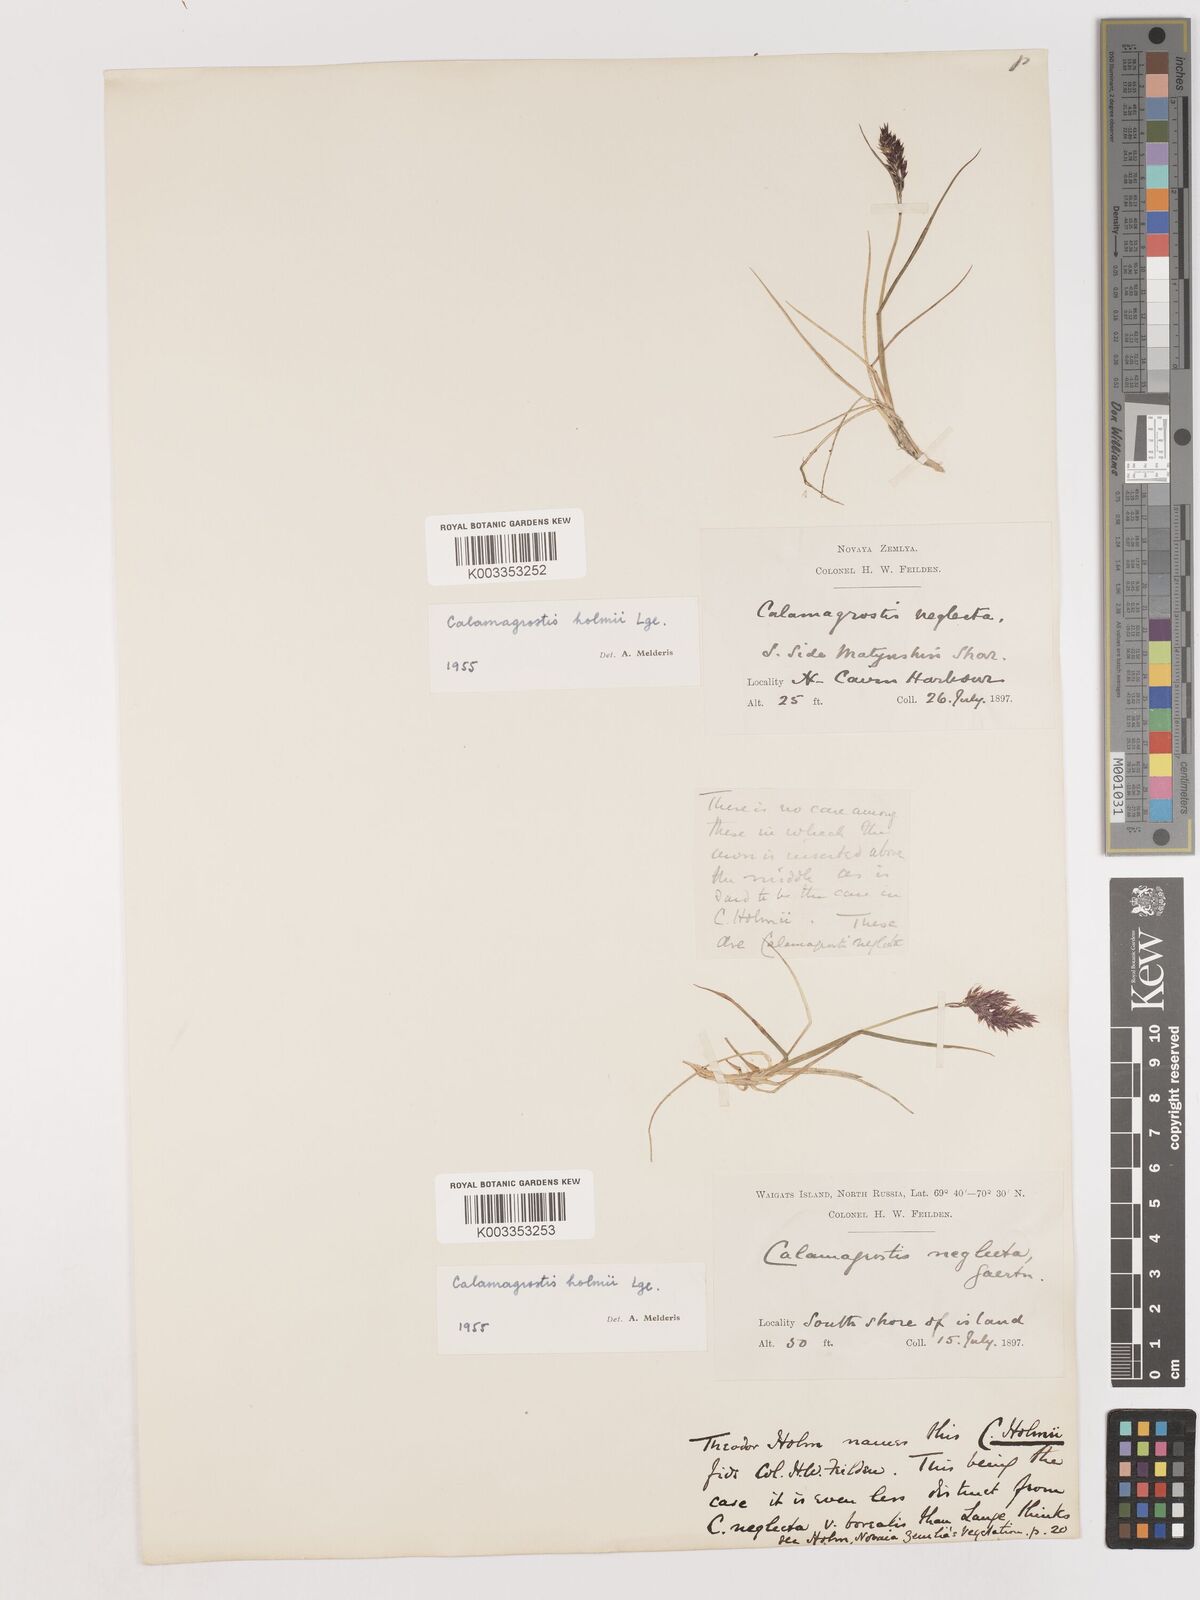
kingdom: Plantae
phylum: Tracheophyta
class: Liliopsida
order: Poales
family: Poaceae
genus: Calamagrostis
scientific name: Calamagrostis
